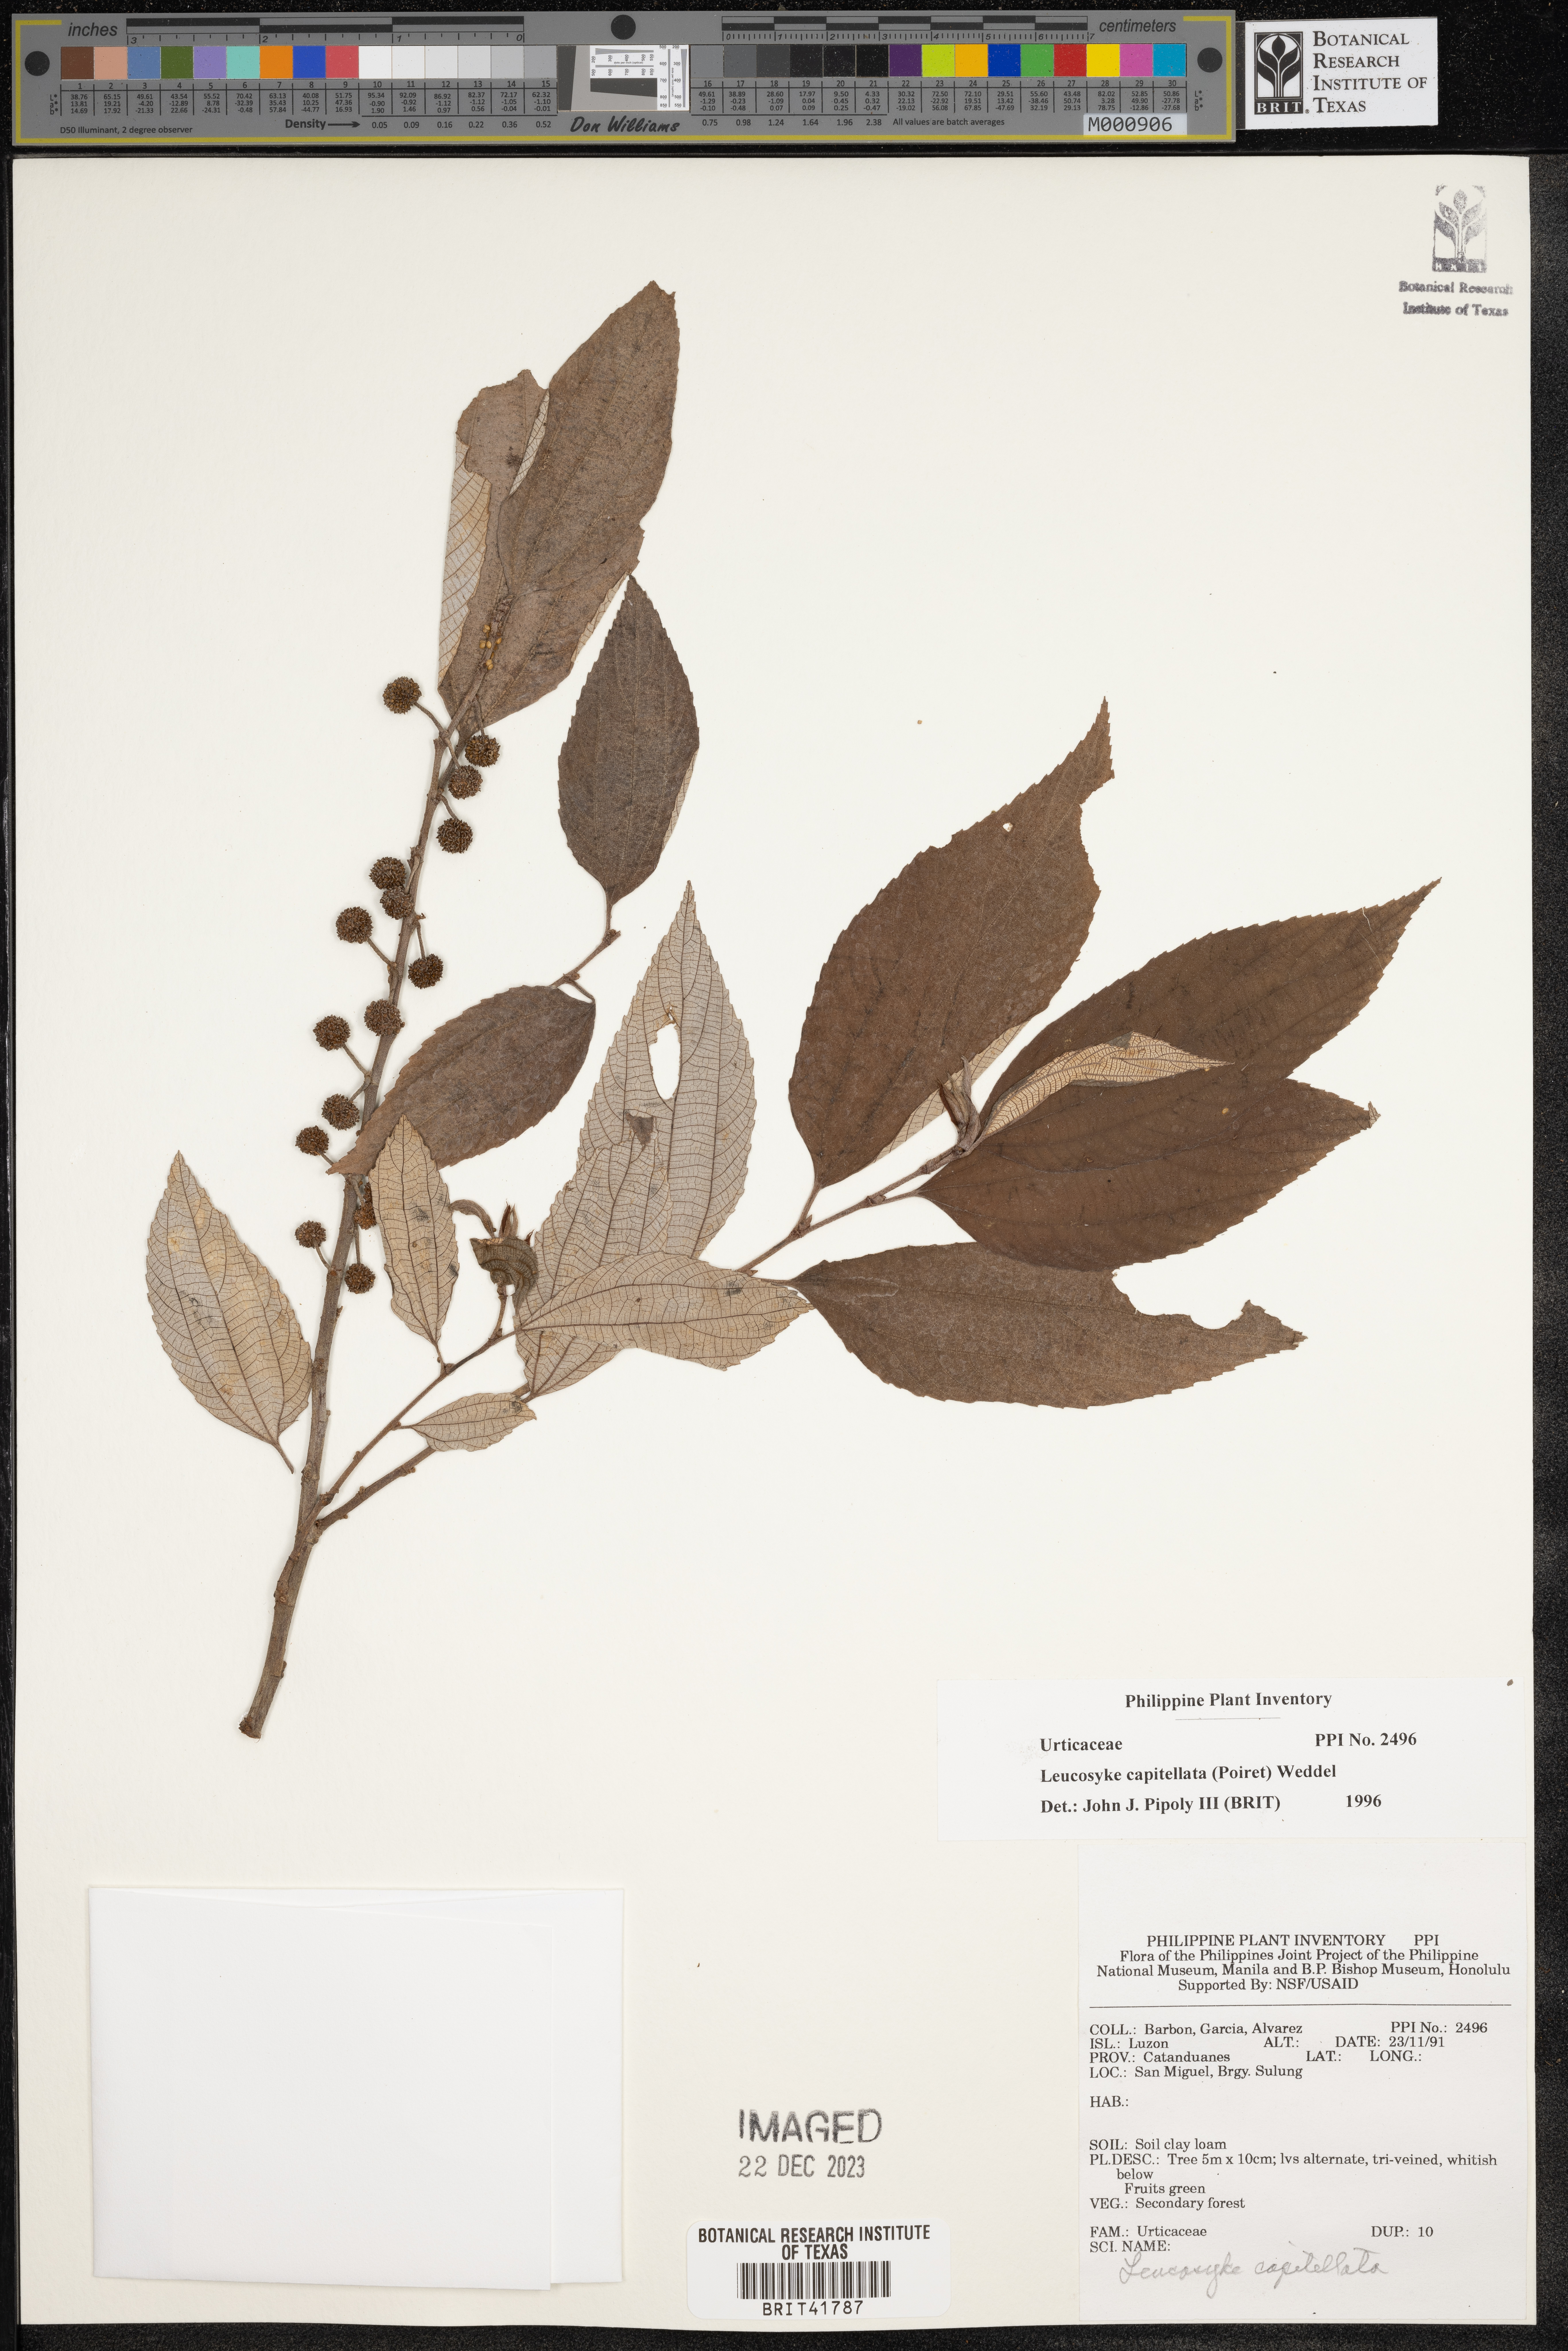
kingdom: Plantae
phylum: Tracheophyta
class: Magnoliopsida
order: Rosales
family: Urticaceae
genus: Leucosyke
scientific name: Leucosyke capitellata
